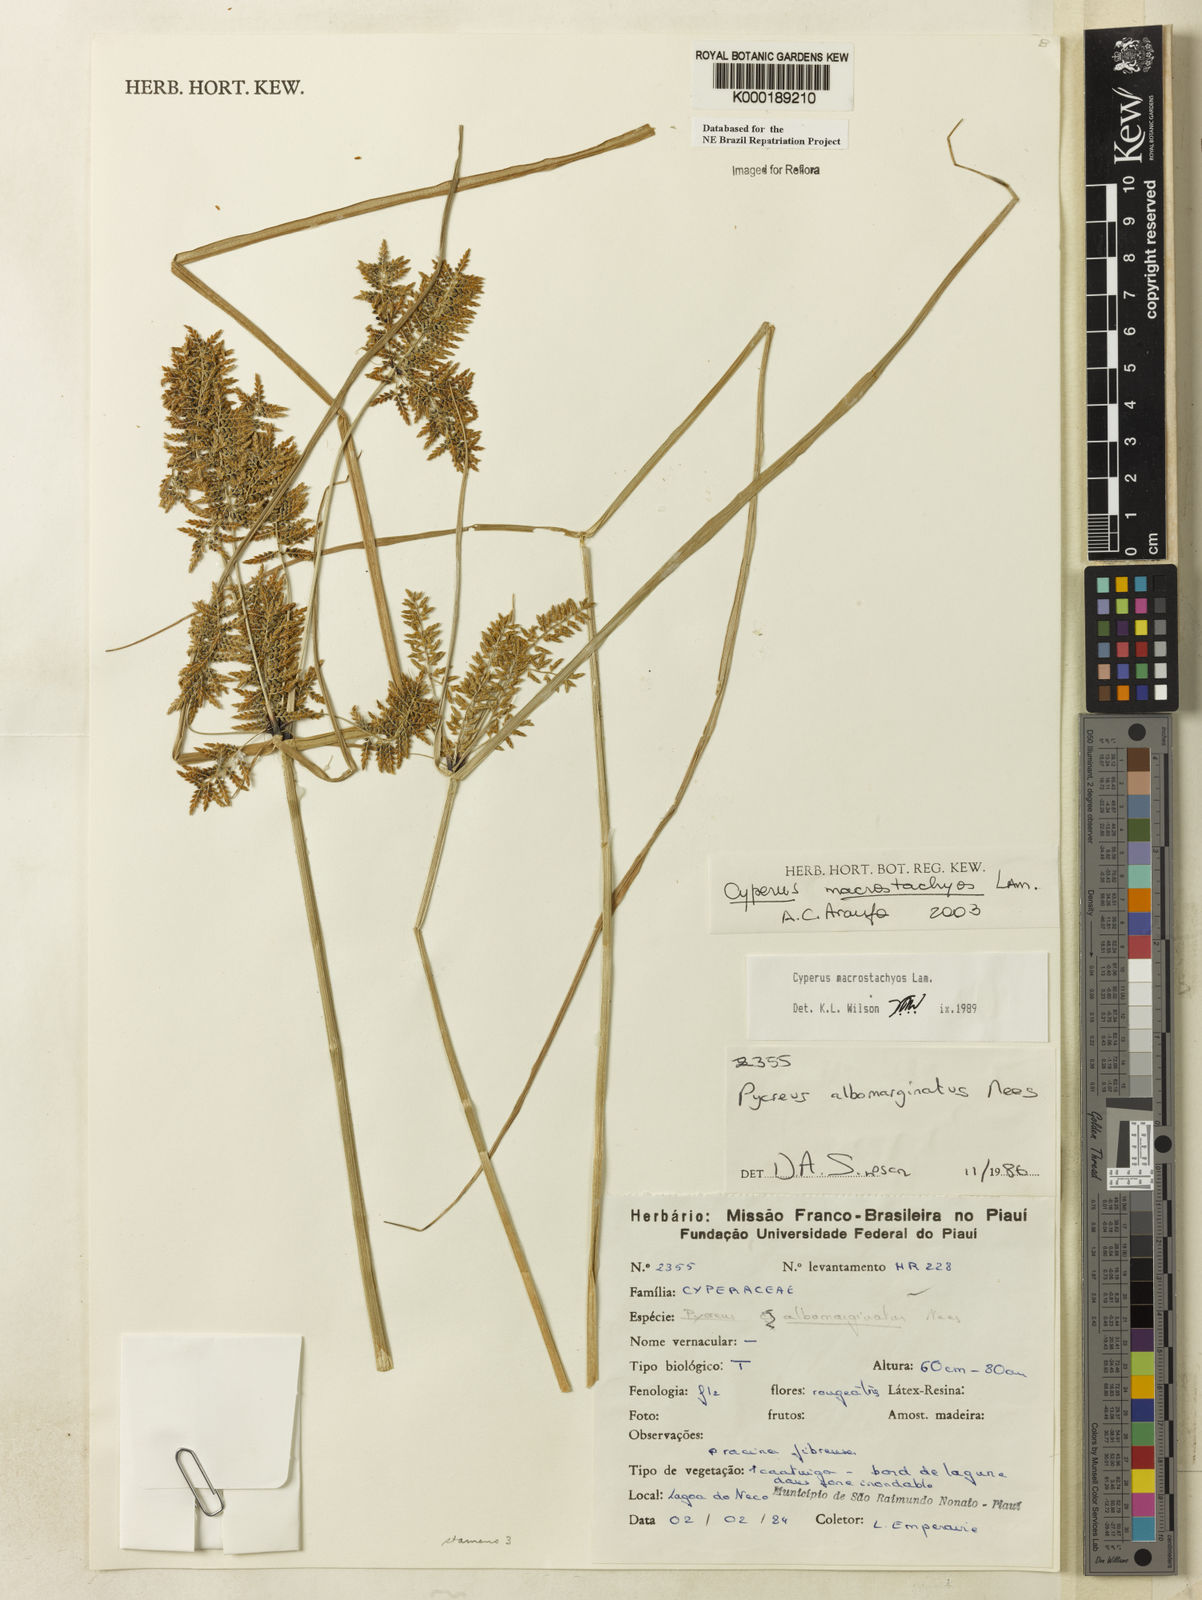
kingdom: Plantae
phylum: Tracheophyta
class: Liliopsida
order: Poales
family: Cyperaceae
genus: Cyperus
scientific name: Cyperus macrostachyos
